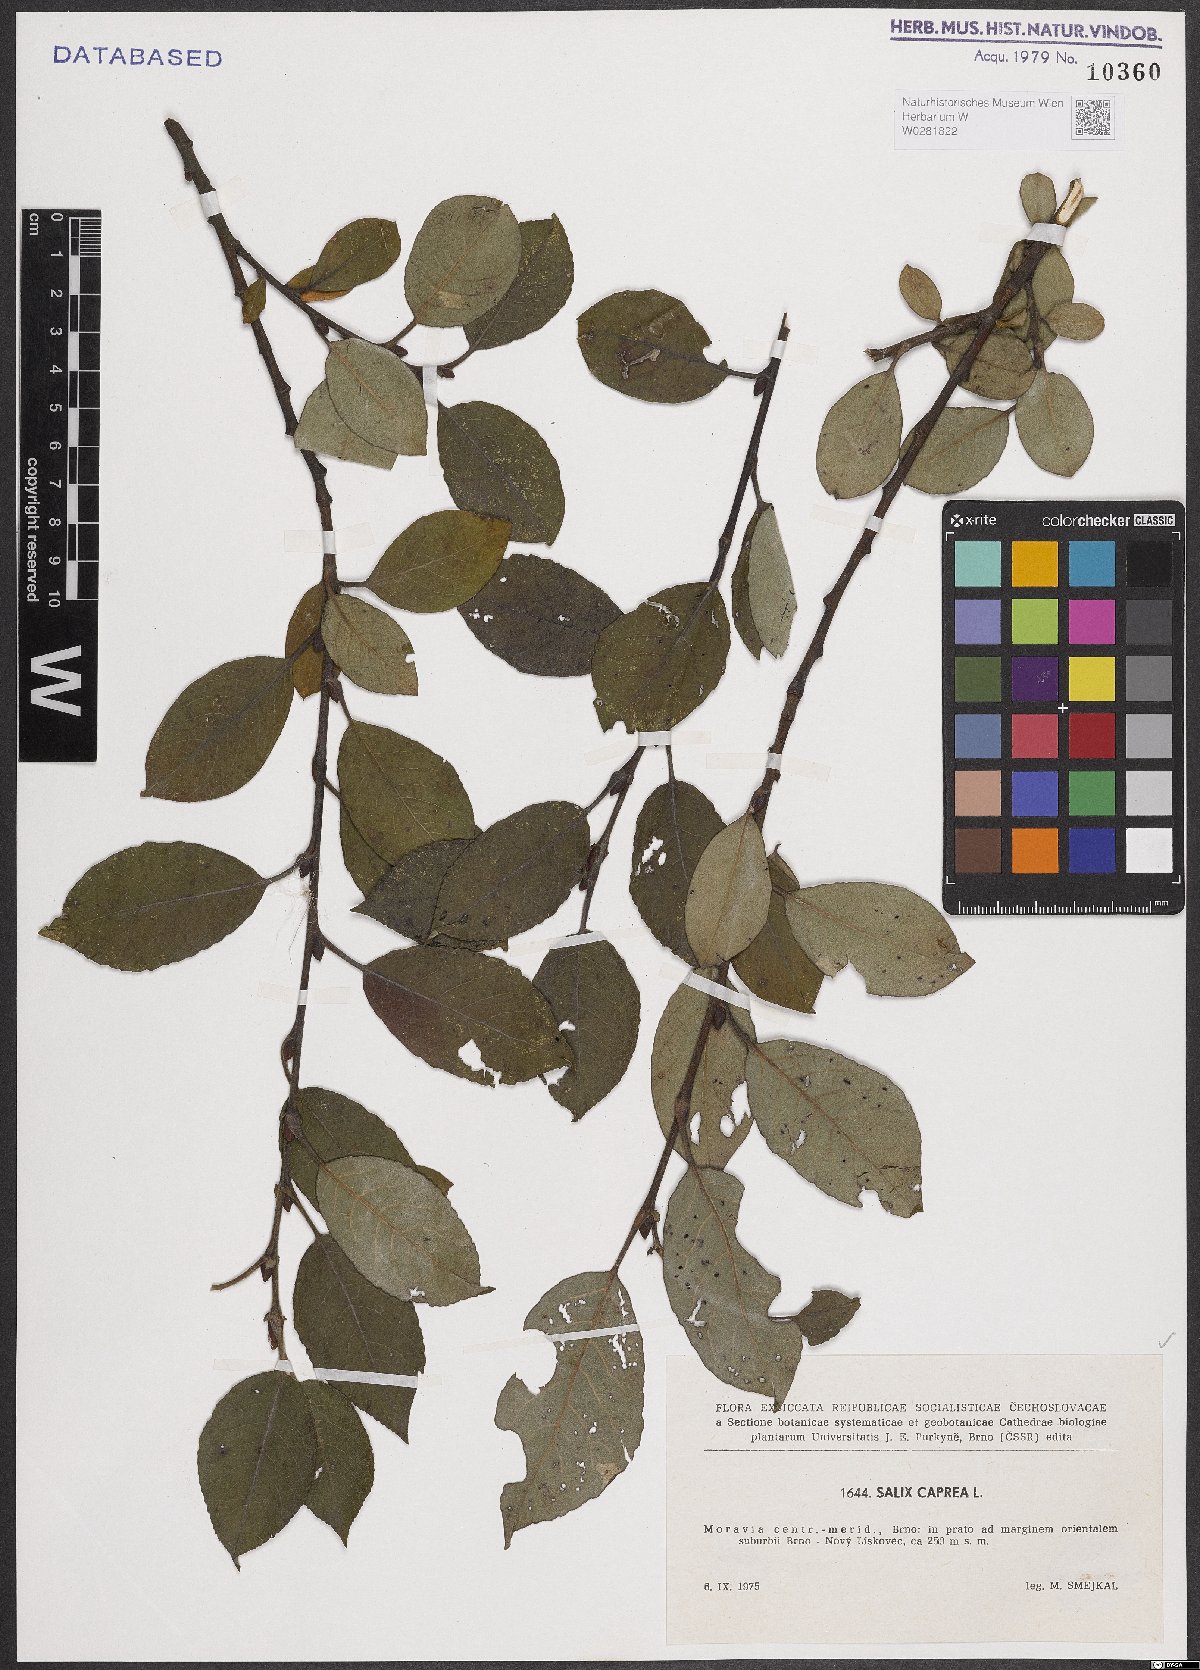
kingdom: Plantae
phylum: Tracheophyta
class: Magnoliopsida
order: Malpighiales
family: Salicaceae
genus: Salix
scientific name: Salix caprea
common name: Goat willow
